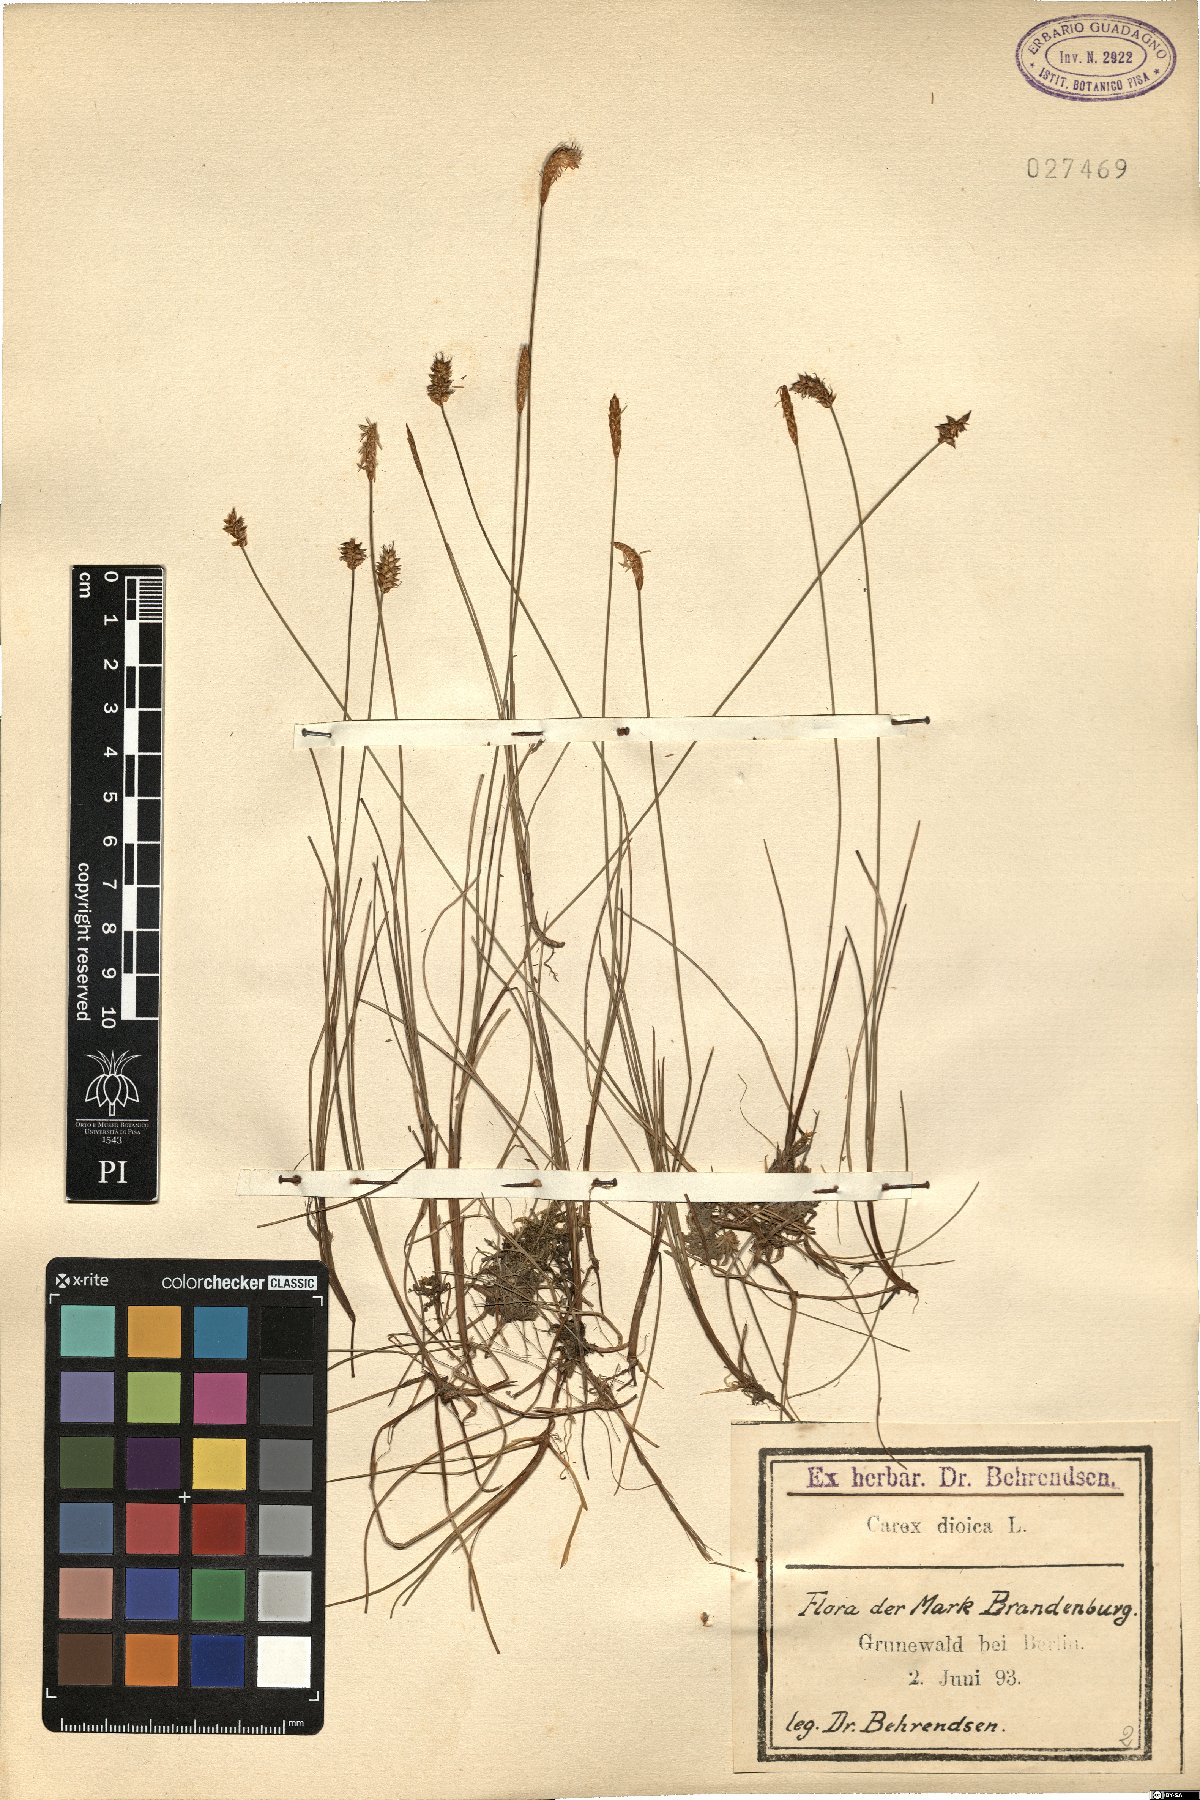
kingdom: Plantae
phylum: Tracheophyta
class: Liliopsida
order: Poales
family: Cyperaceae
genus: Carex
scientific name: Carex dioica
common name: Dioecious sedge
